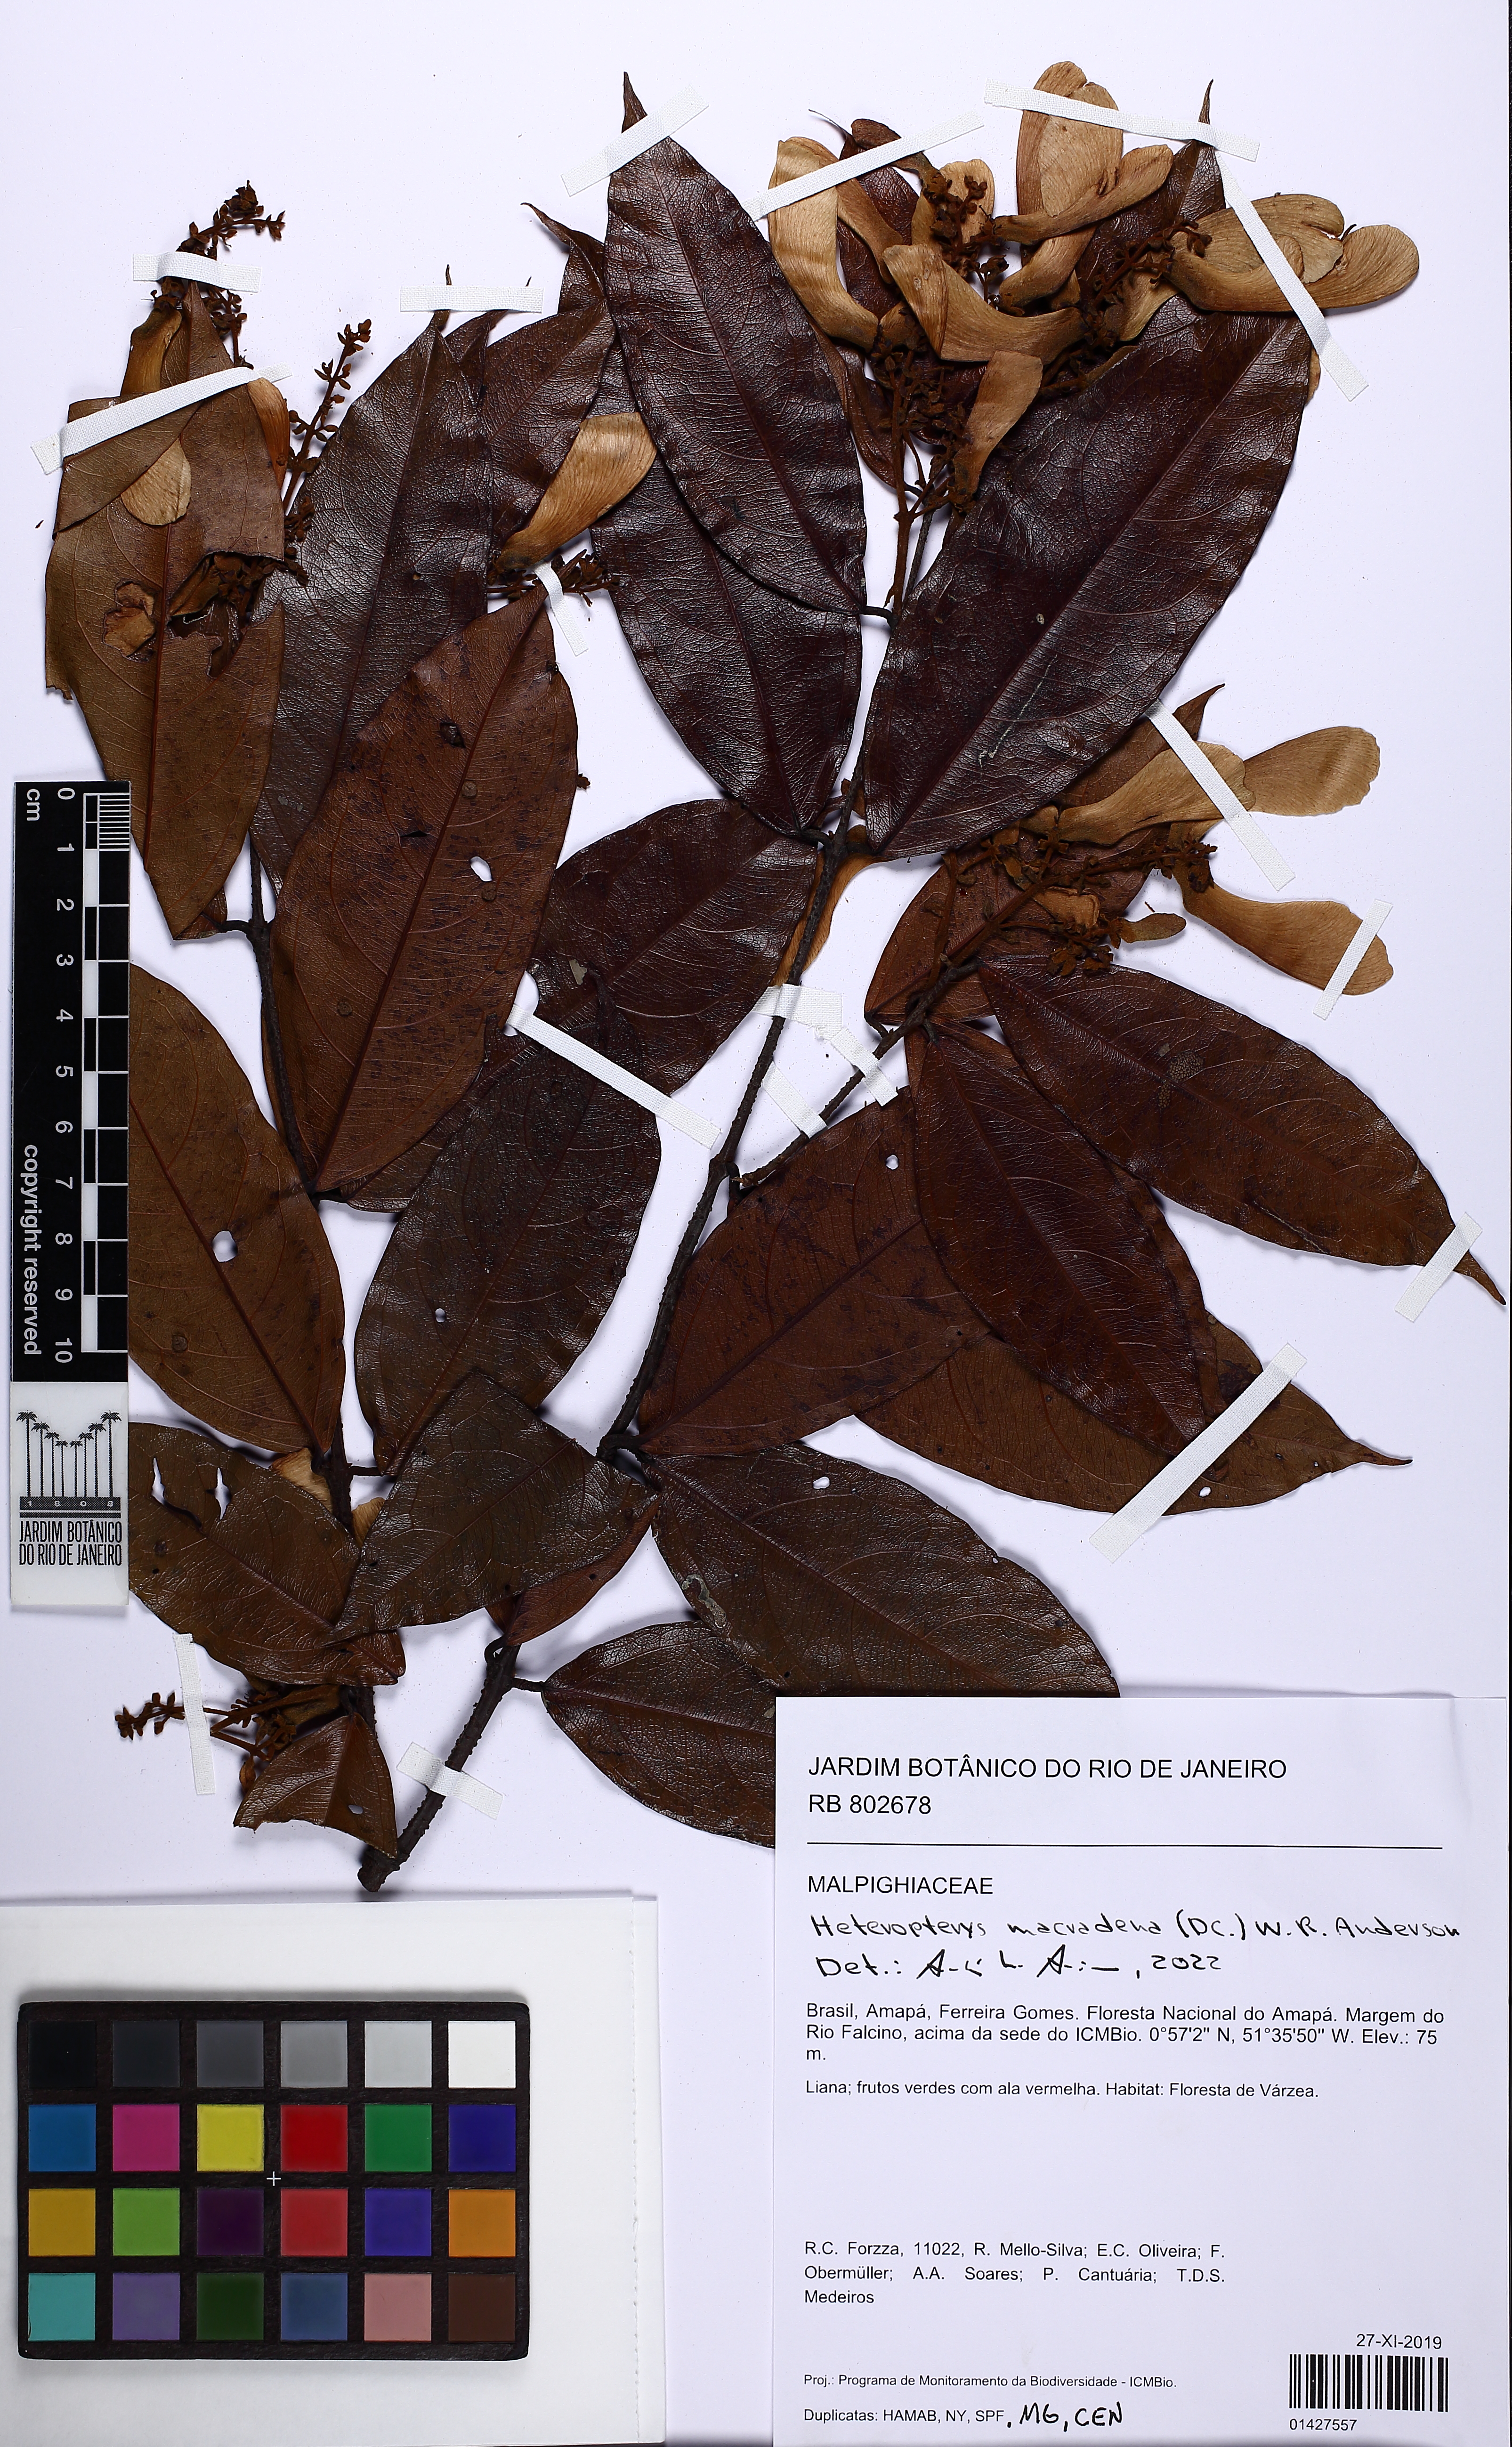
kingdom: Plantae
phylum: Tracheophyta
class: Magnoliopsida
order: Malpighiales
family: Malpighiaceae
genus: Heteropterys
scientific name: Heteropterys macradena
